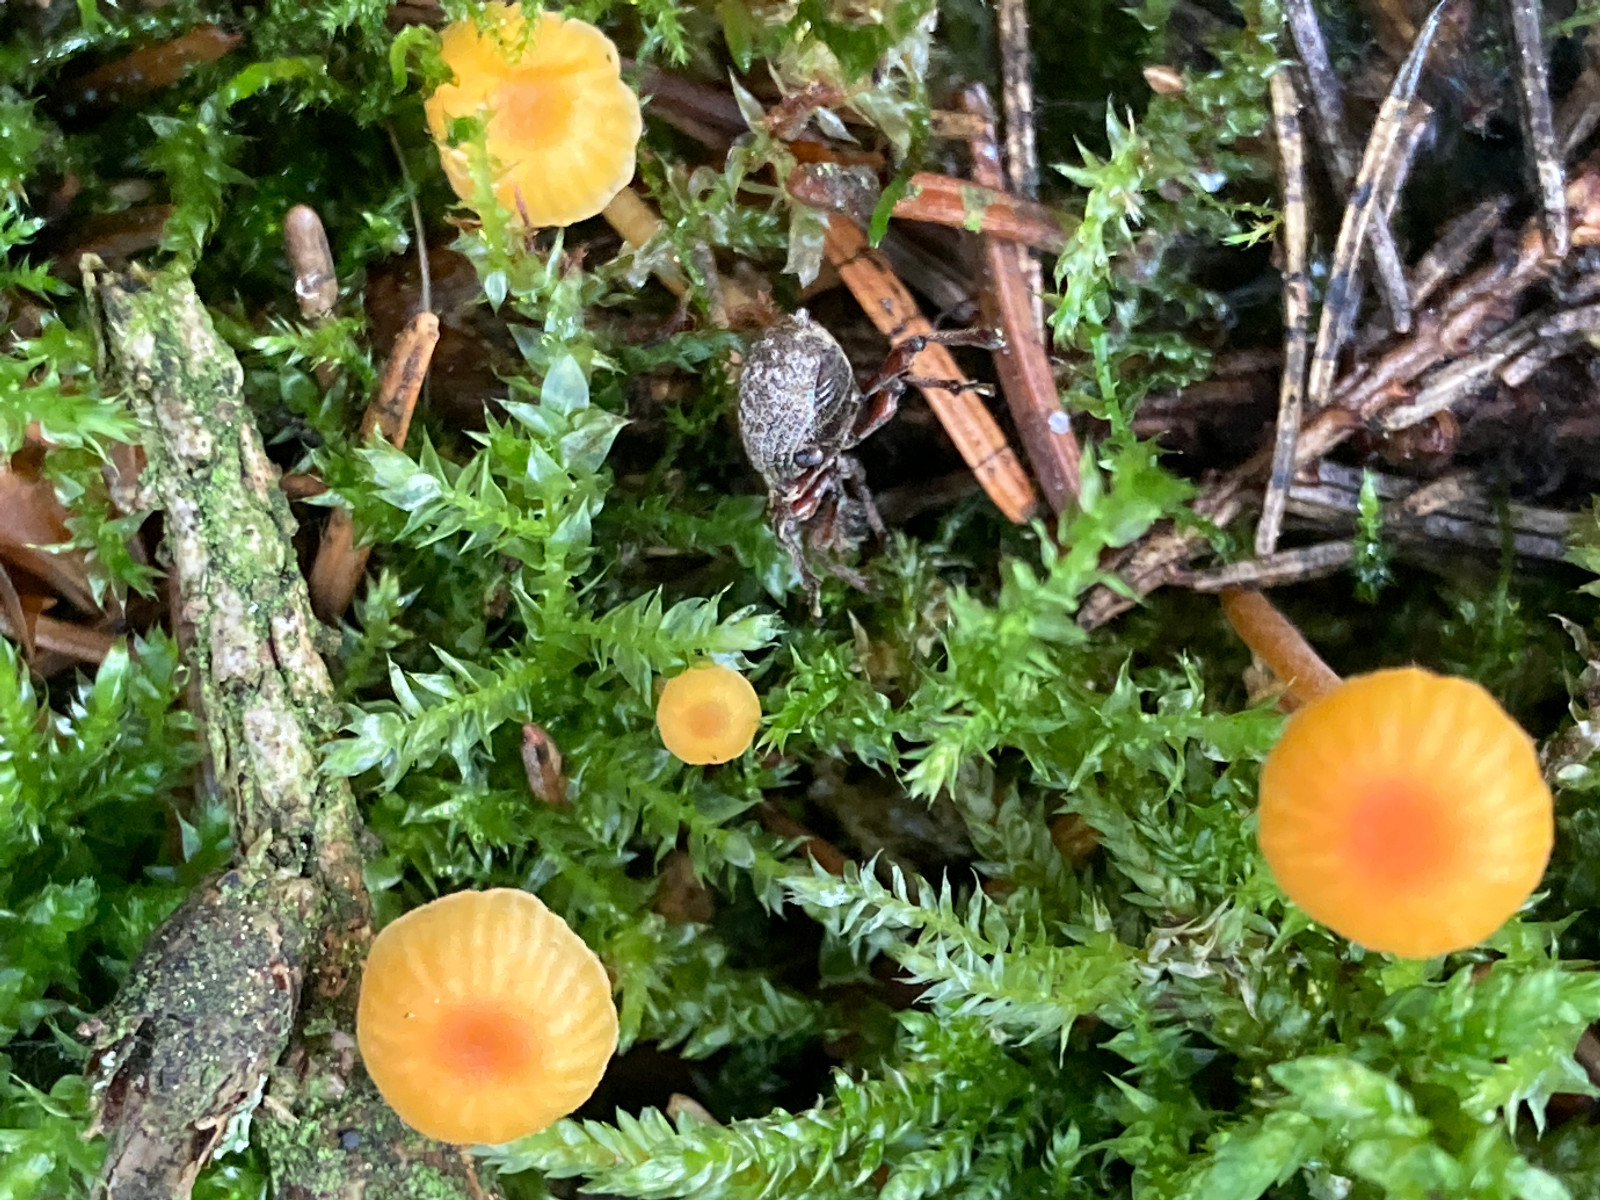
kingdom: Fungi
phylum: Basidiomycota
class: Agaricomycetes
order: Hymenochaetales
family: Rickenellaceae
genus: Rickenella
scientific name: Rickenella fibula
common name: orange mosnavlehat
